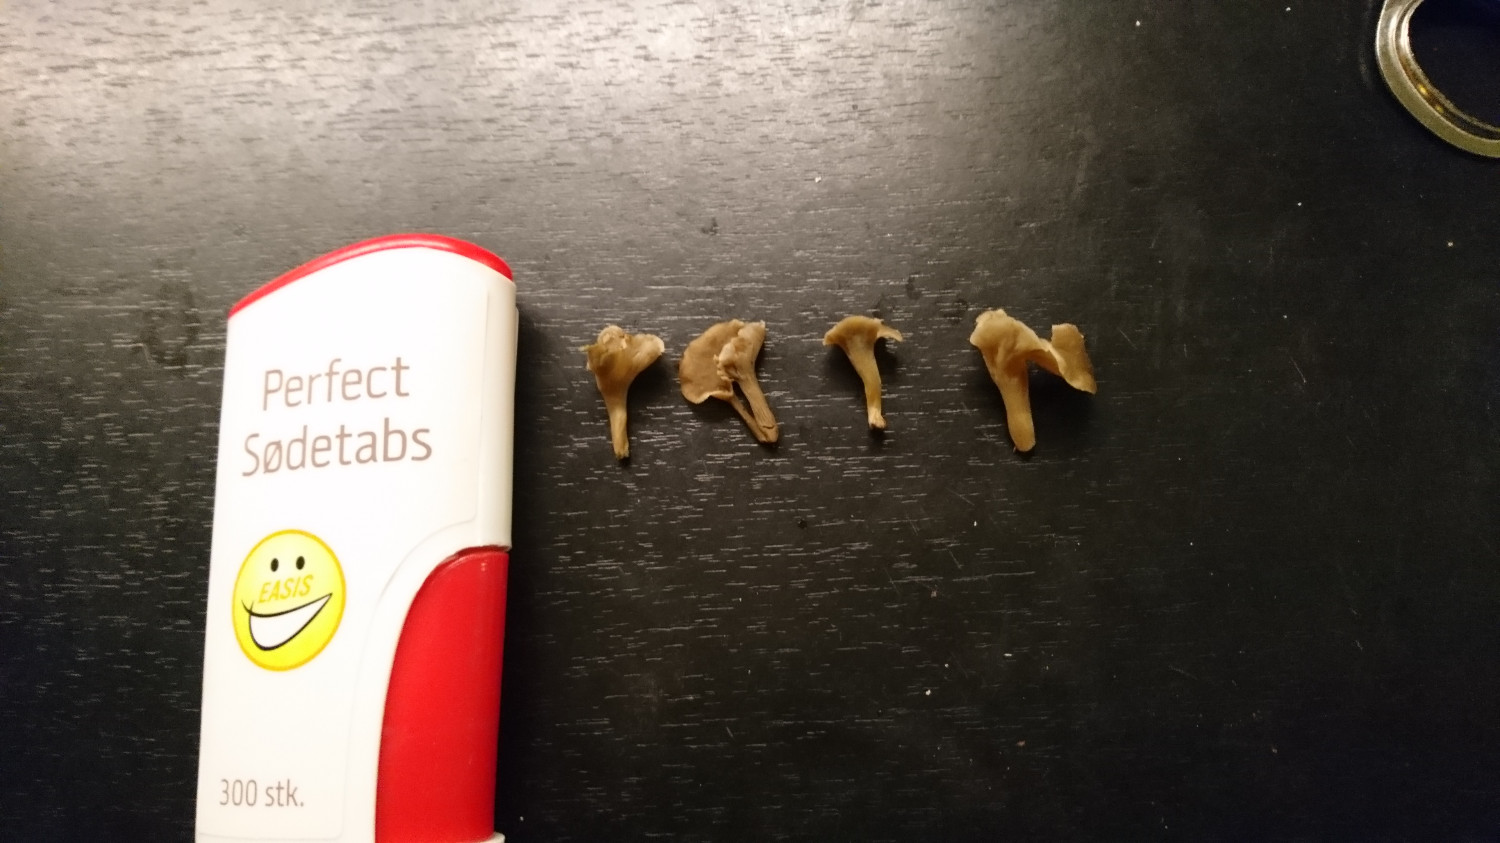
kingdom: Fungi
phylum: Basidiomycota
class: Agaricomycetes
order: Cantharellales
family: Hydnaceae
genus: Craterellus
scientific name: Craterellus undulatus
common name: liden kantarel
